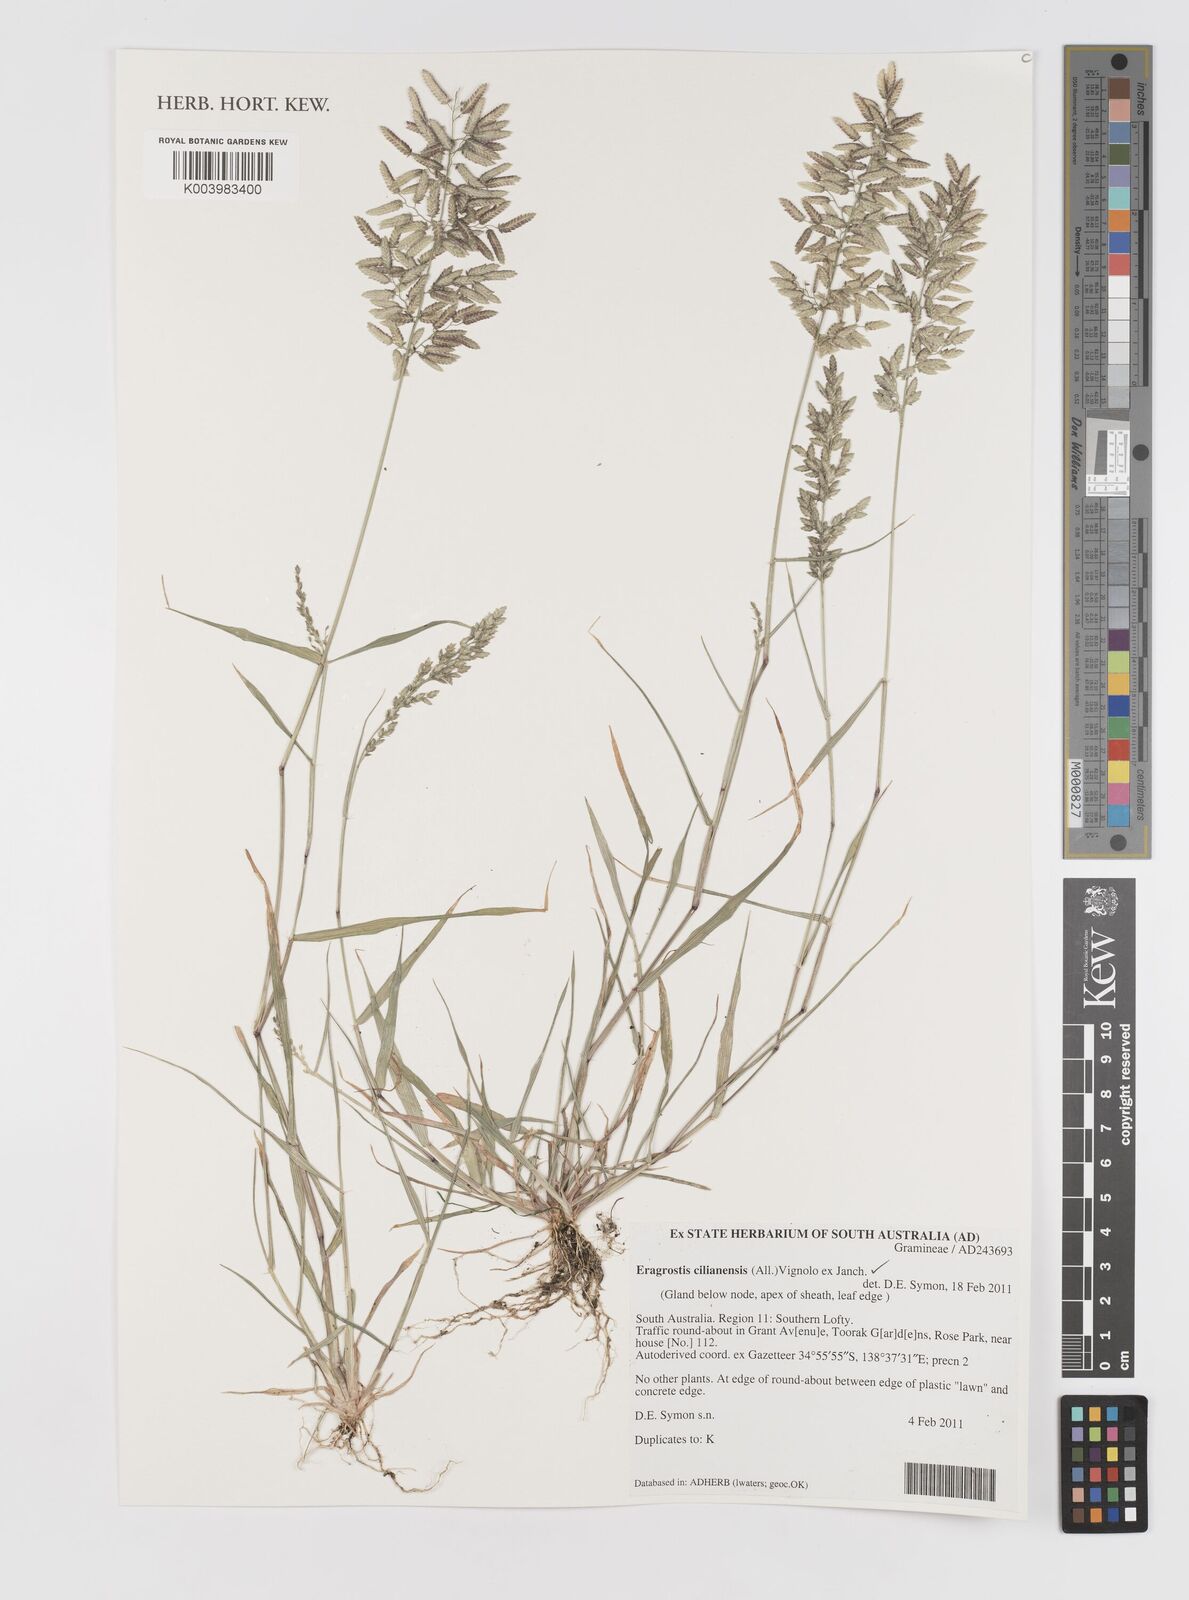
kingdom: Plantae
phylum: Tracheophyta
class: Liliopsida
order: Poales
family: Poaceae
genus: Eragrostis
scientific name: Eragrostis cilianensis
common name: Stinkgrass
